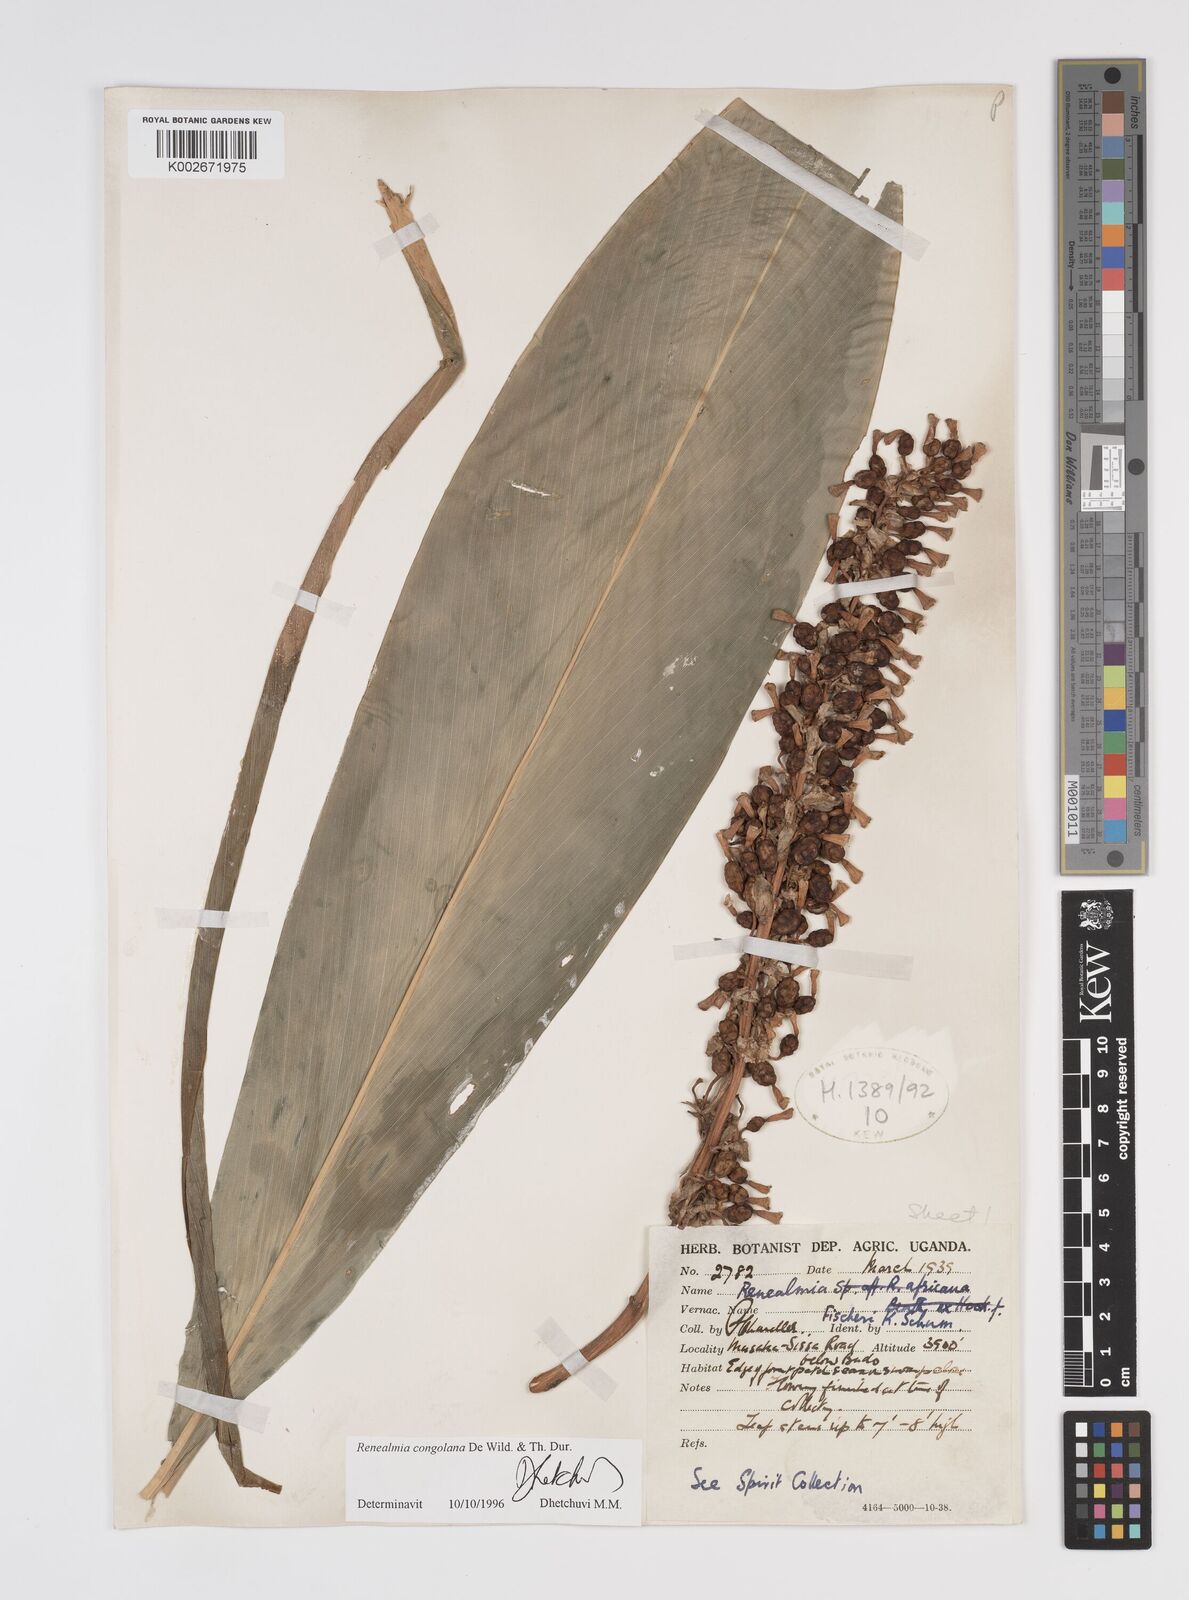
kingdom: Plantae
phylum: Tracheophyta
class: Liliopsida
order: Zingiberales
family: Zingiberaceae
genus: Renealmia
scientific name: Renealmia congolana
